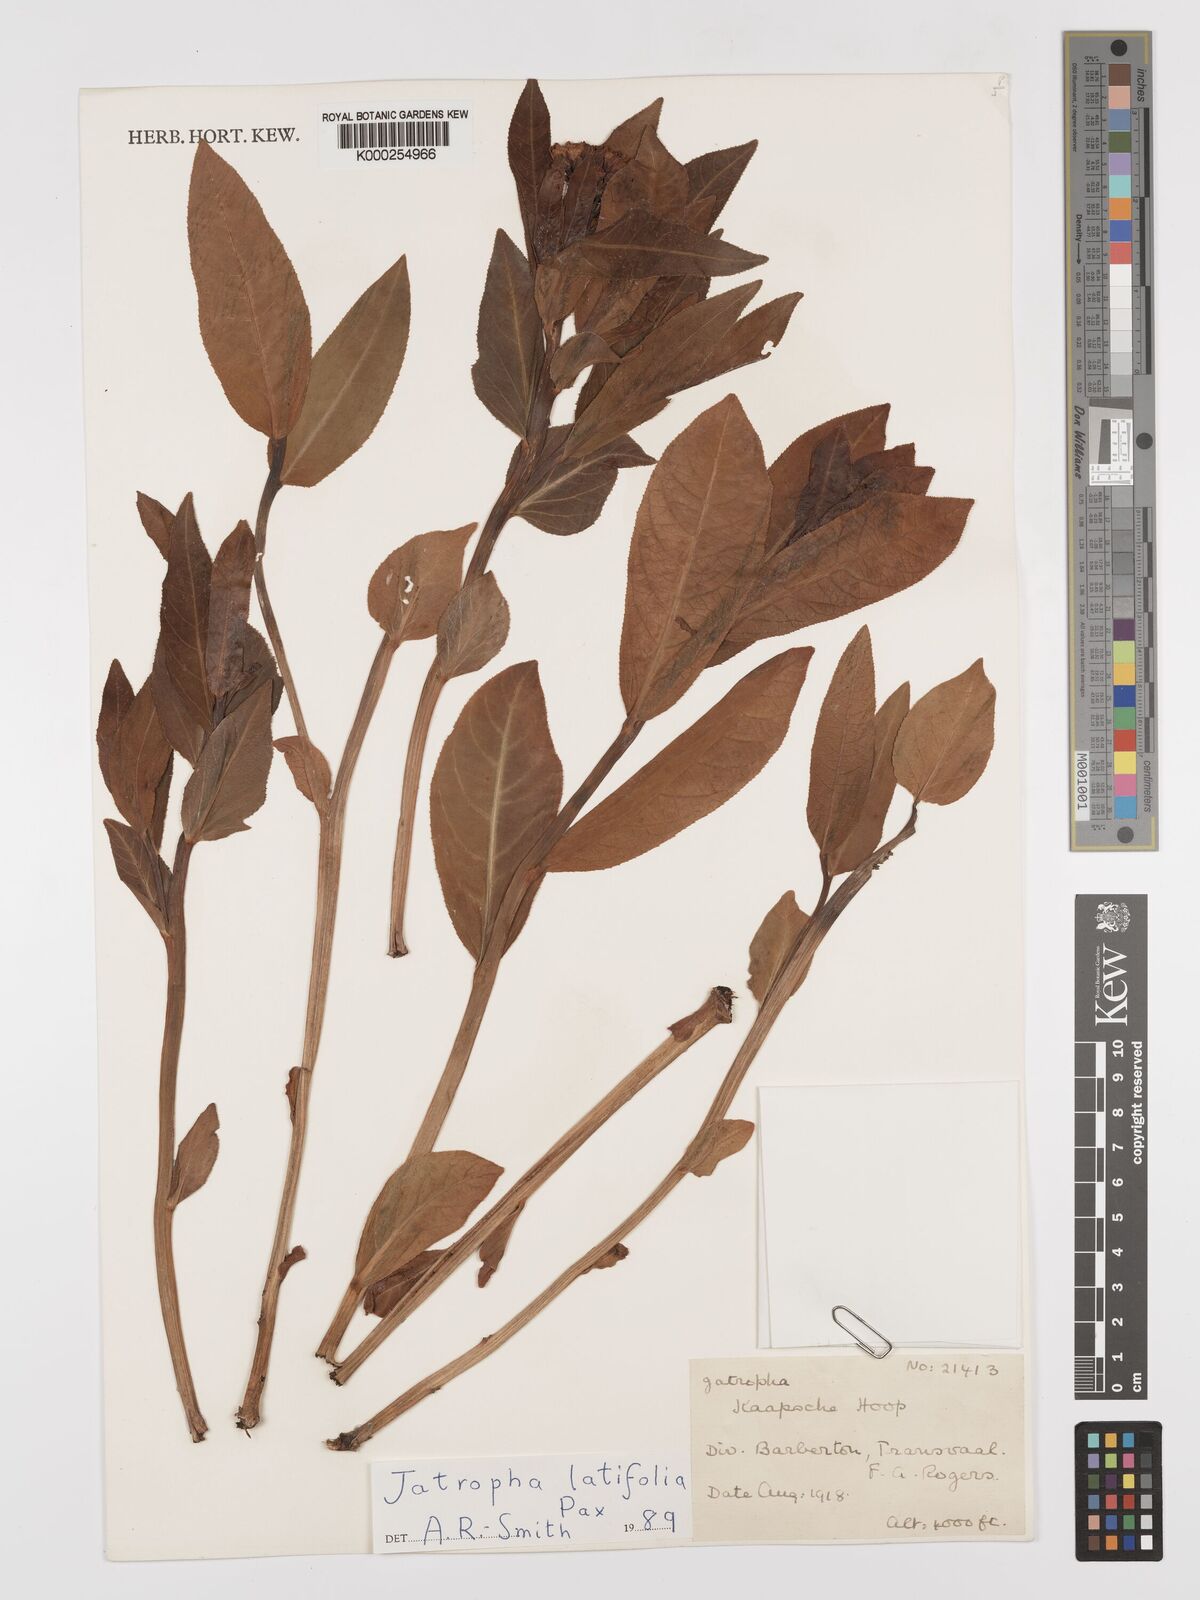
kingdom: Plantae
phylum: Tracheophyta
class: Magnoliopsida
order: Malpighiales
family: Euphorbiaceae
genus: Jatropha
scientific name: Jatropha latifolia
